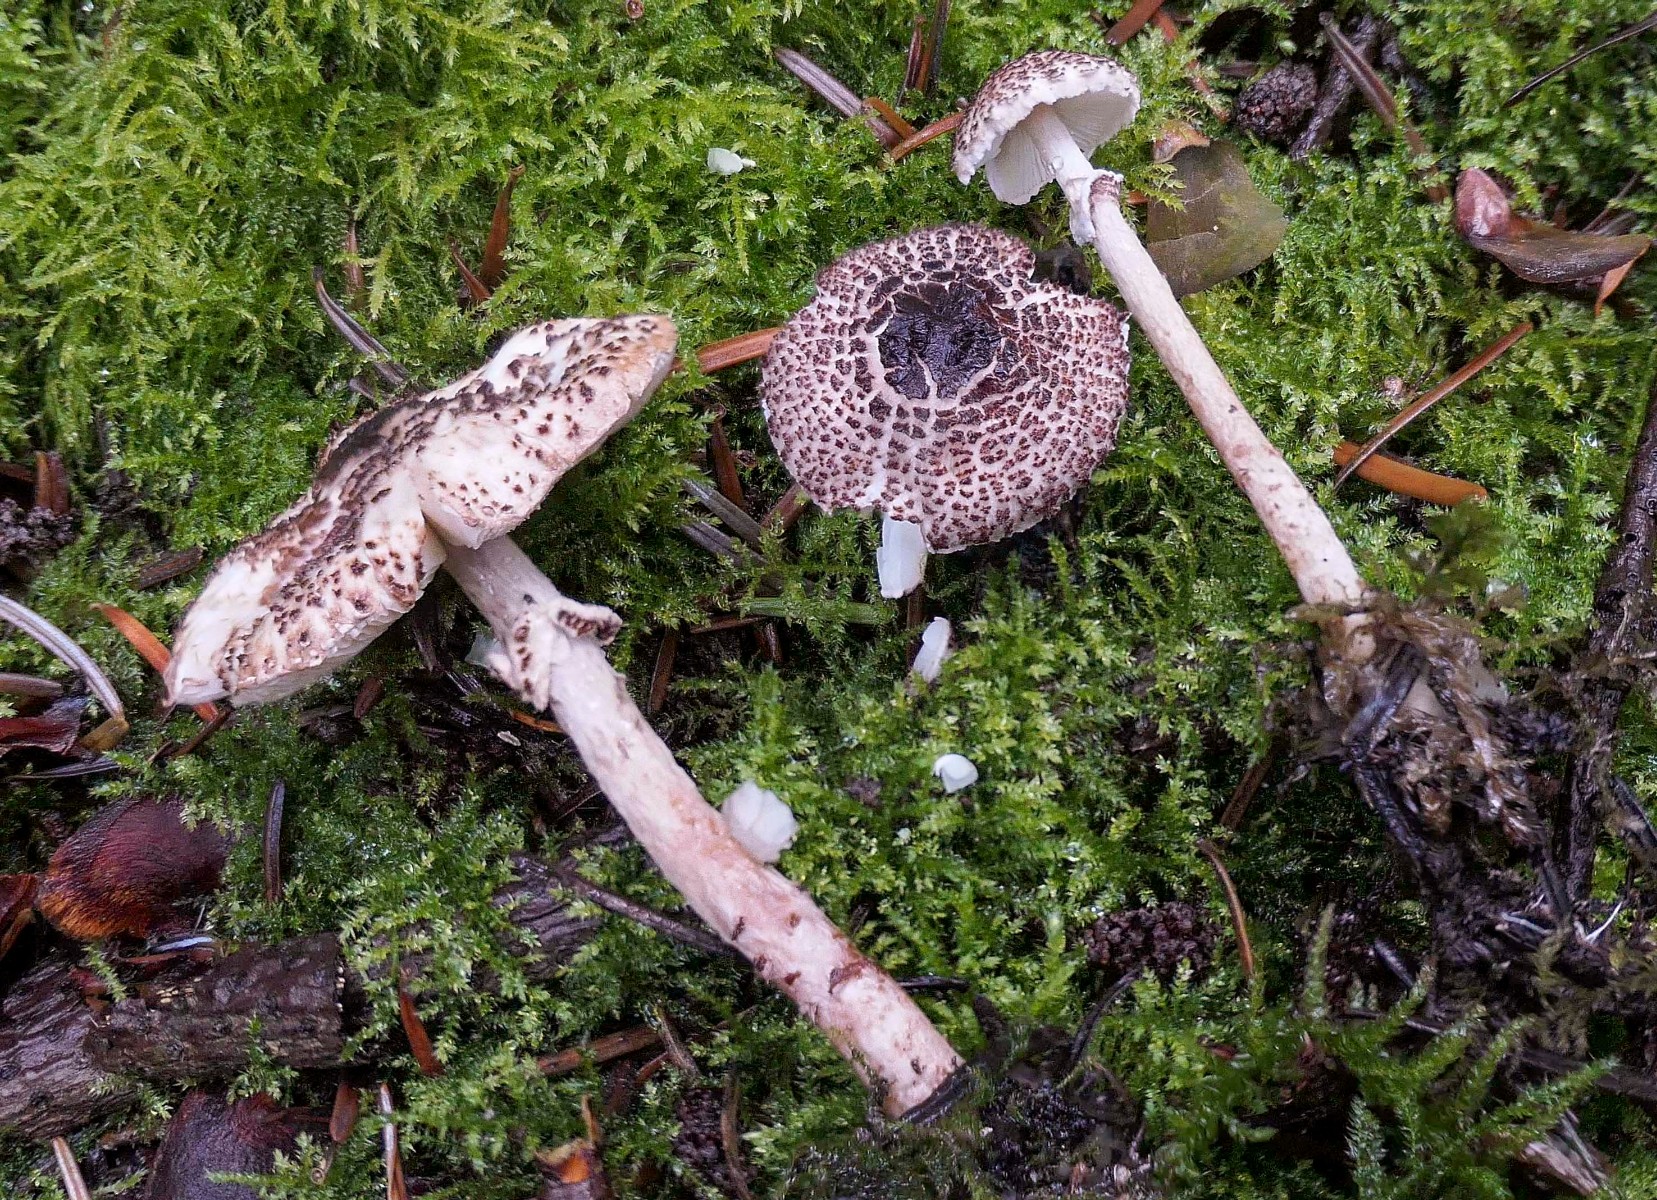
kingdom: Fungi
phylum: Basidiomycota
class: Agaricomycetes
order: Agaricales
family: Agaricaceae
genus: Lepiota
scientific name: Lepiota felina
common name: sortskællet parasolhat
